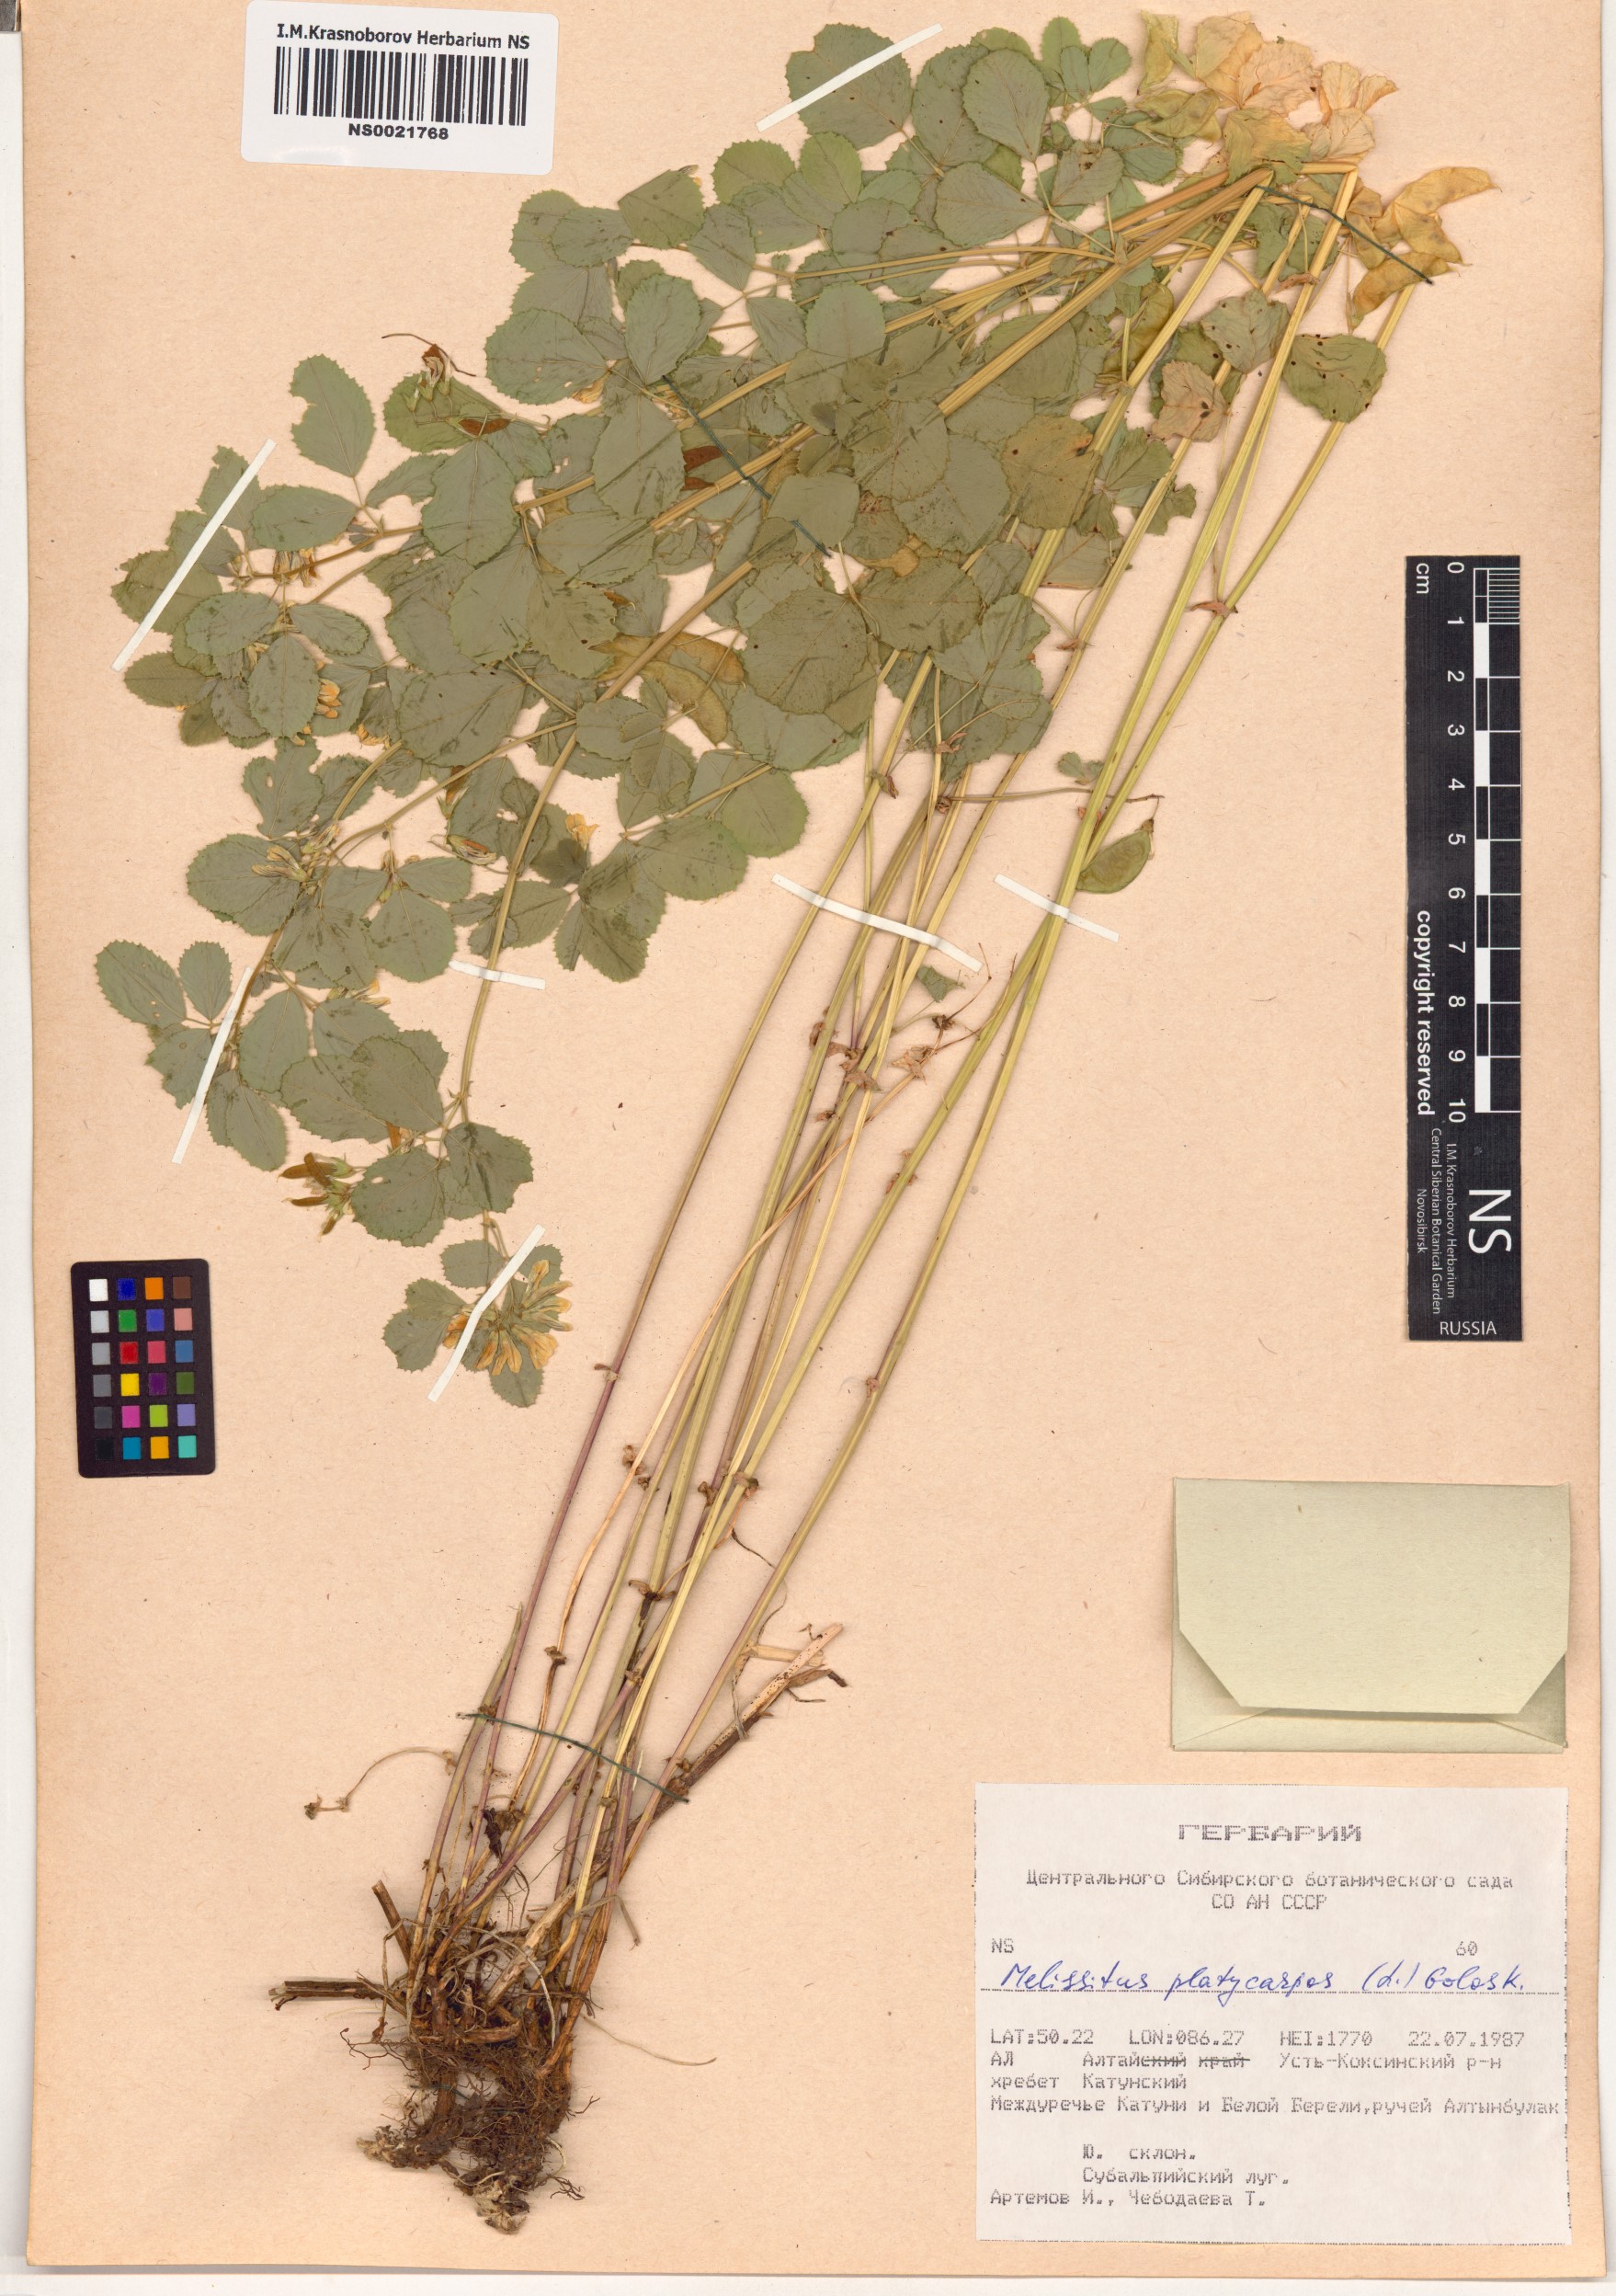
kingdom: Plantae
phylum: Tracheophyta
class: Magnoliopsida
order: Fabales
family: Fabaceae
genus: Medicago
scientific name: Medicago platycarpos
